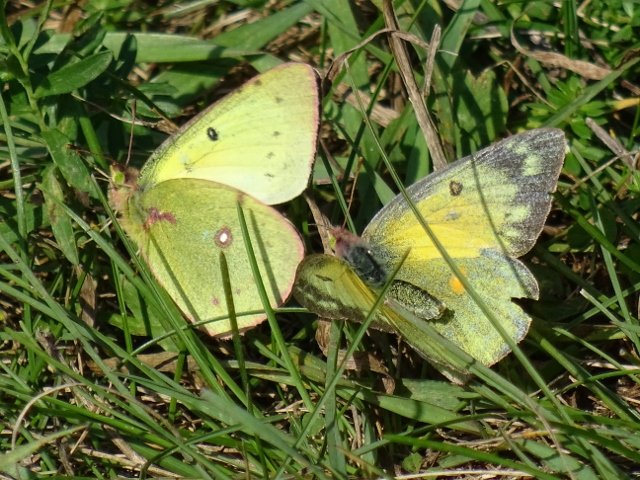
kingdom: Animalia
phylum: Arthropoda
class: Insecta
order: Lepidoptera
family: Pieridae
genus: Colias
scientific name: Colias eurytheme
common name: Orange Sulphur
